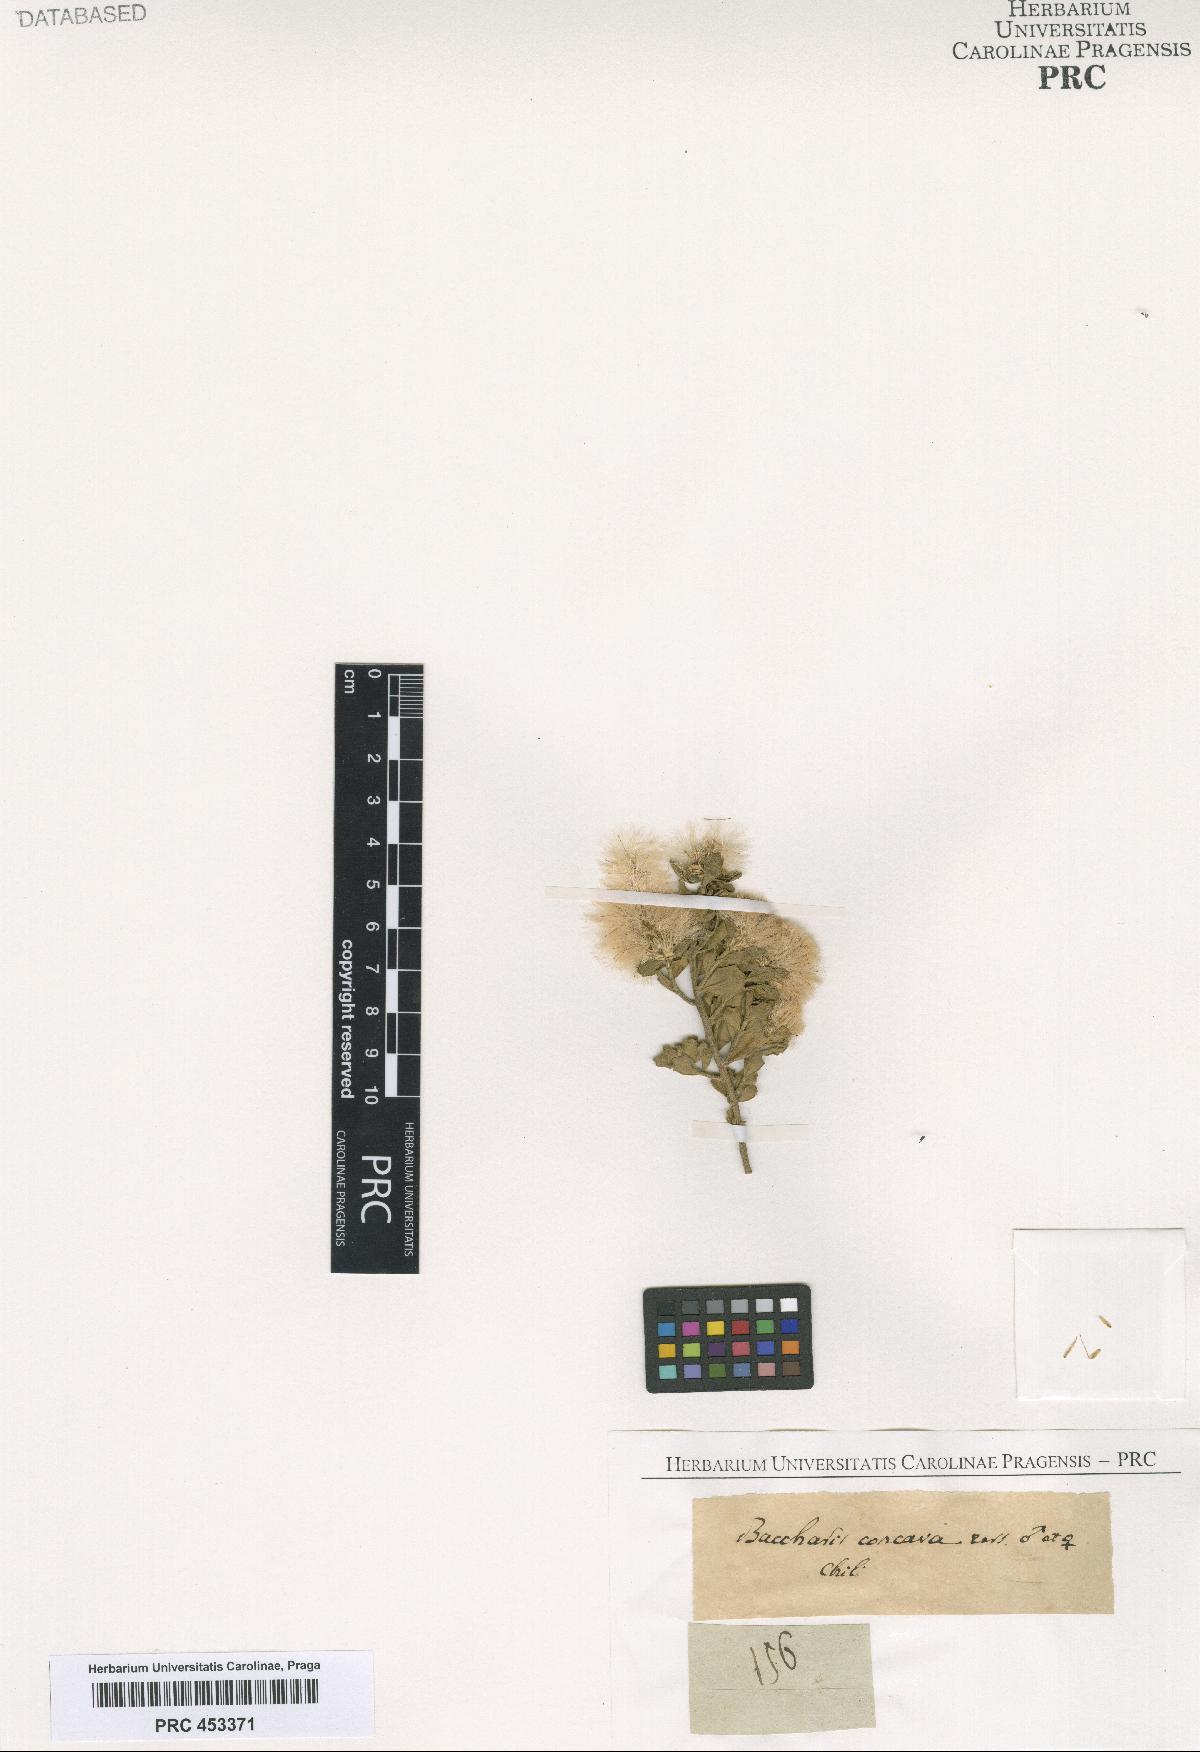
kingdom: Plantae
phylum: Tracheophyta
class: Magnoliopsida
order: Asterales
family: Asteraceae
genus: Baccharis
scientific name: Baccharis
